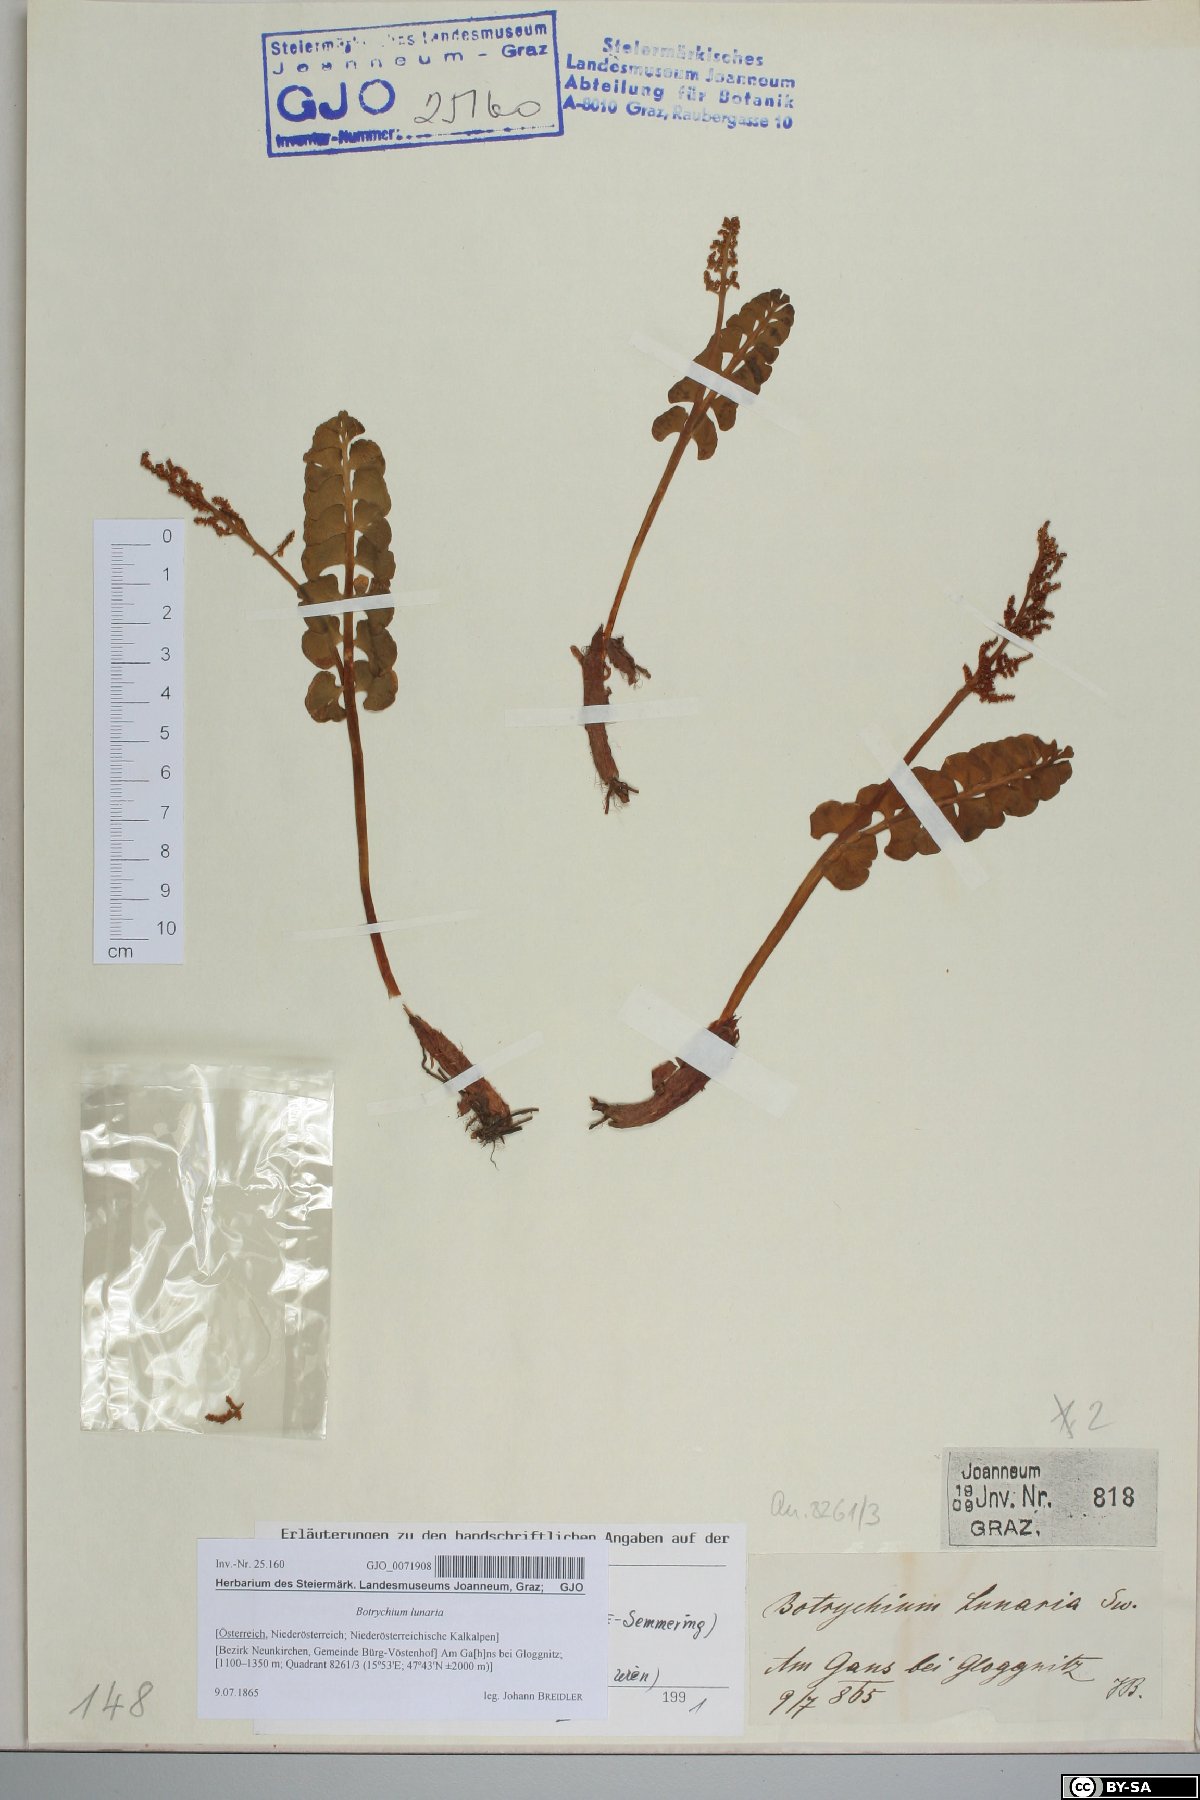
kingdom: Plantae
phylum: Tracheophyta
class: Polypodiopsida
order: Ophioglossales
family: Ophioglossaceae
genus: Botrychium
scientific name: Botrychium lunaria
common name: Moonwort
